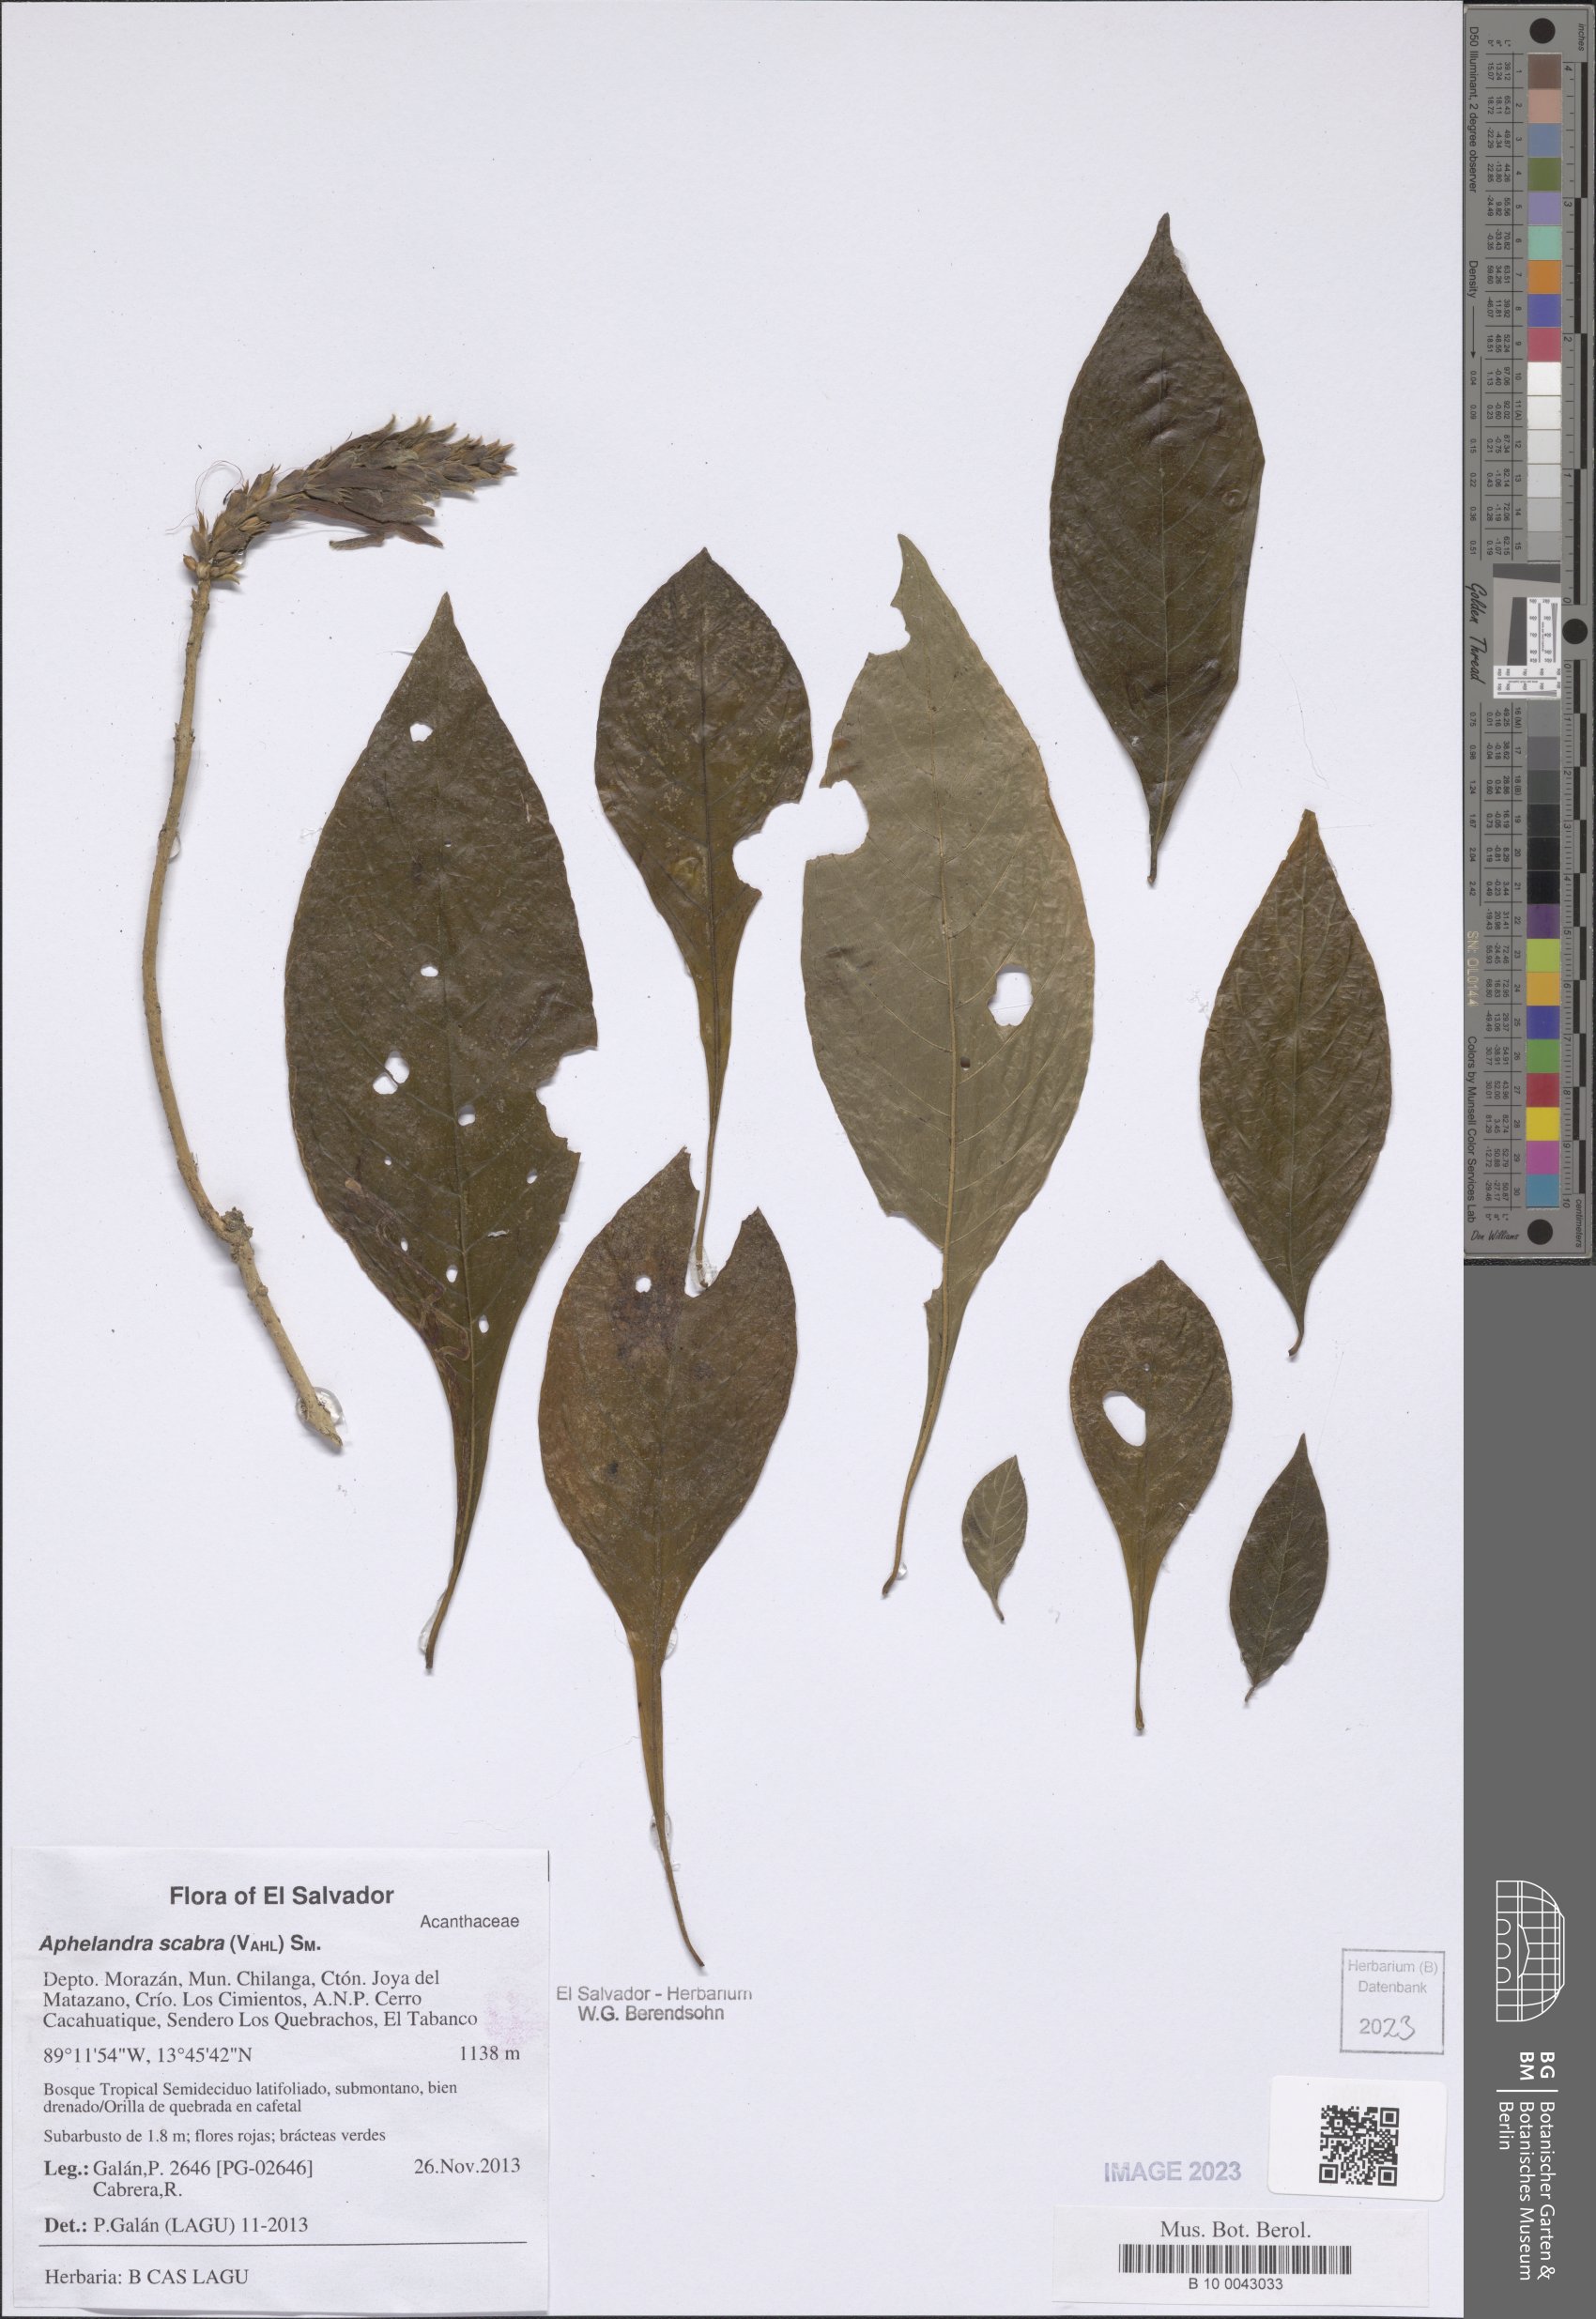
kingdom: Plantae
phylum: Tracheophyta
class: Magnoliopsida
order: Lamiales
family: Acanthaceae
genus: Aphelandra
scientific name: Aphelandra scabra
